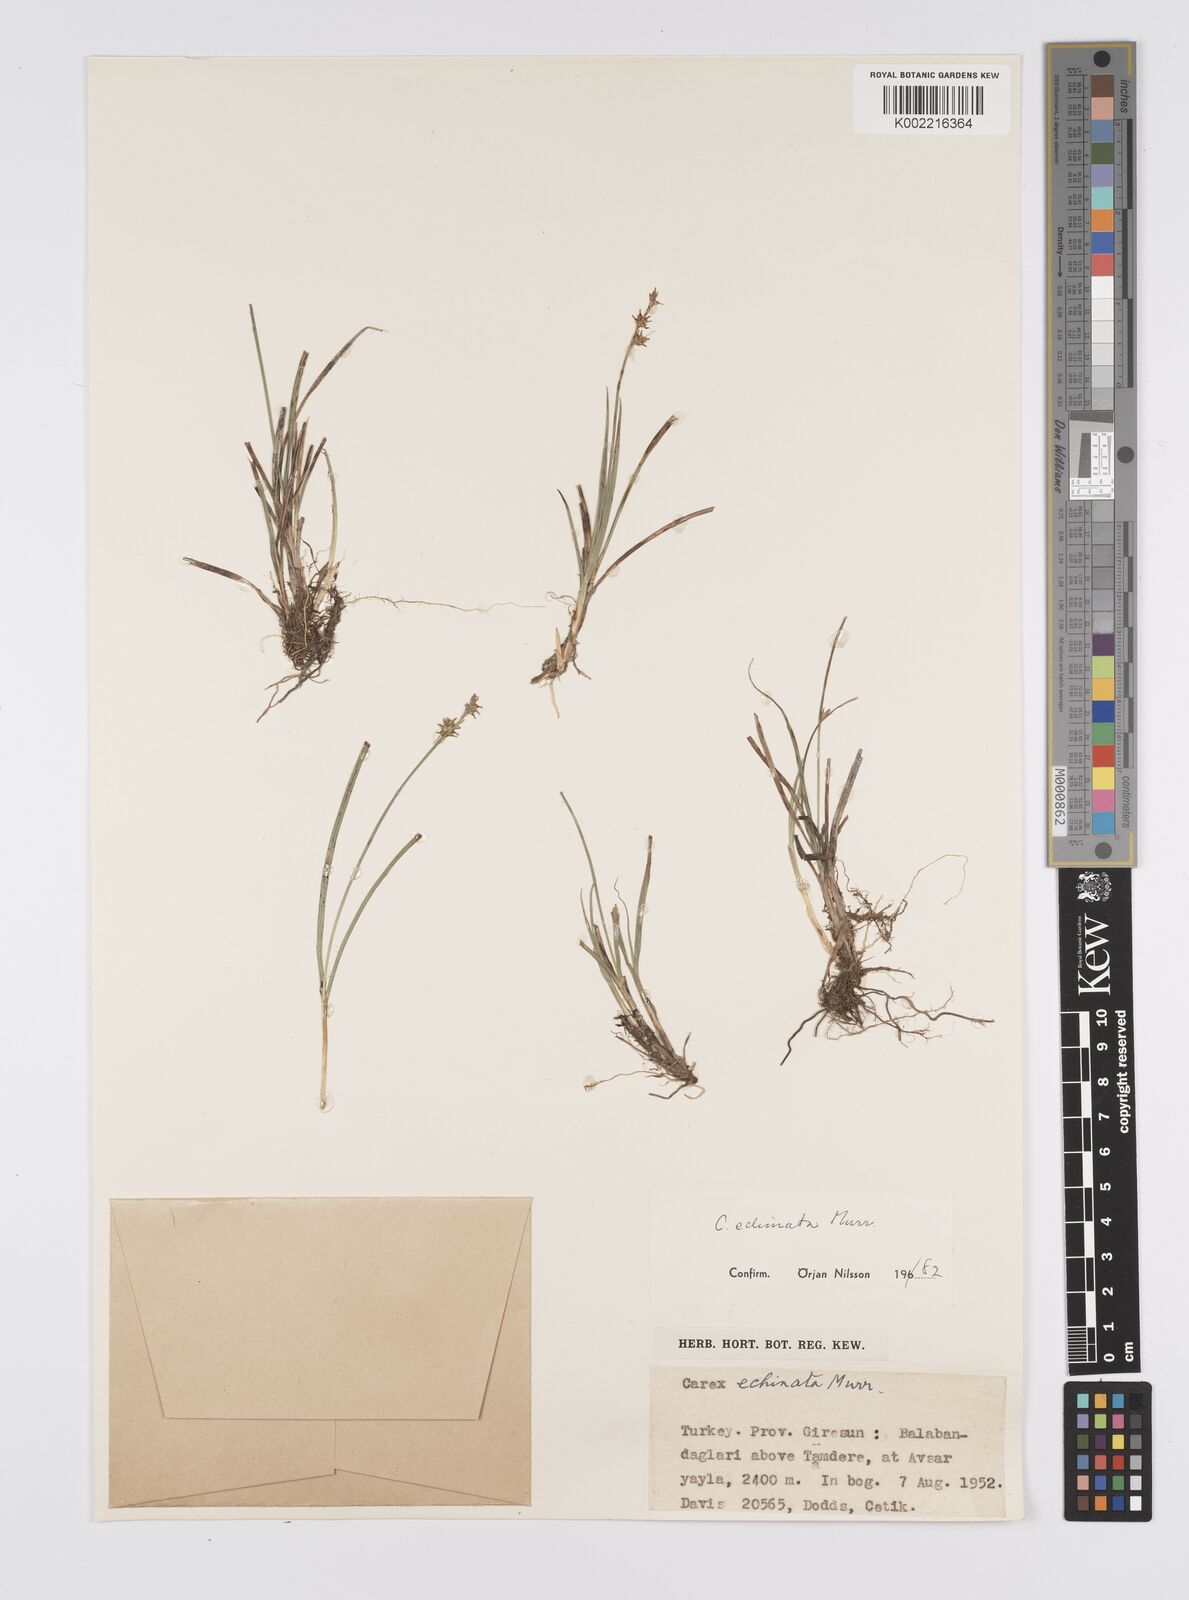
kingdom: Plantae
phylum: Tracheophyta
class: Liliopsida
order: Poales
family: Cyperaceae
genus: Carex
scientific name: Carex echinata
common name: Star sedge
